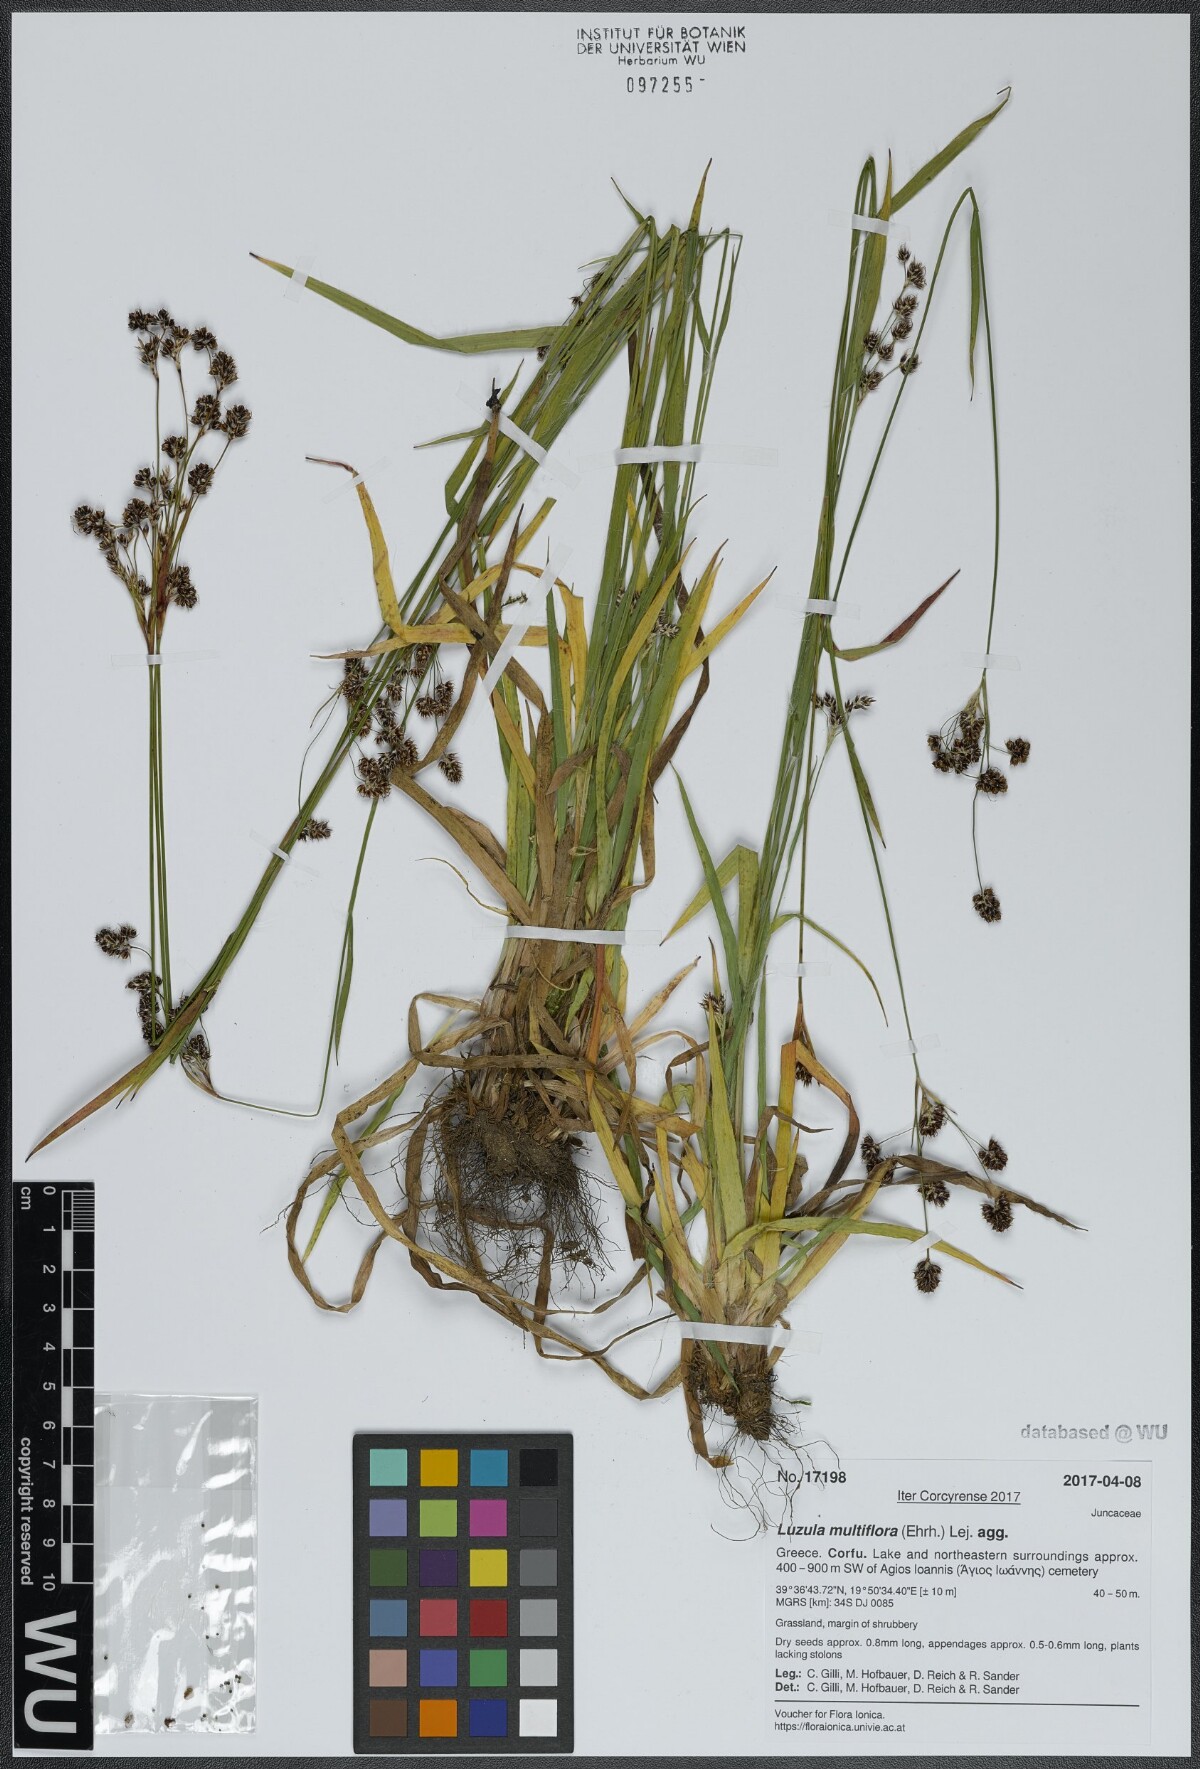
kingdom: Plantae
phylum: Tracheophyta
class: Liliopsida
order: Poales
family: Juncaceae
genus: Luzula
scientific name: Luzula multiflora
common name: Heath wood-rush
